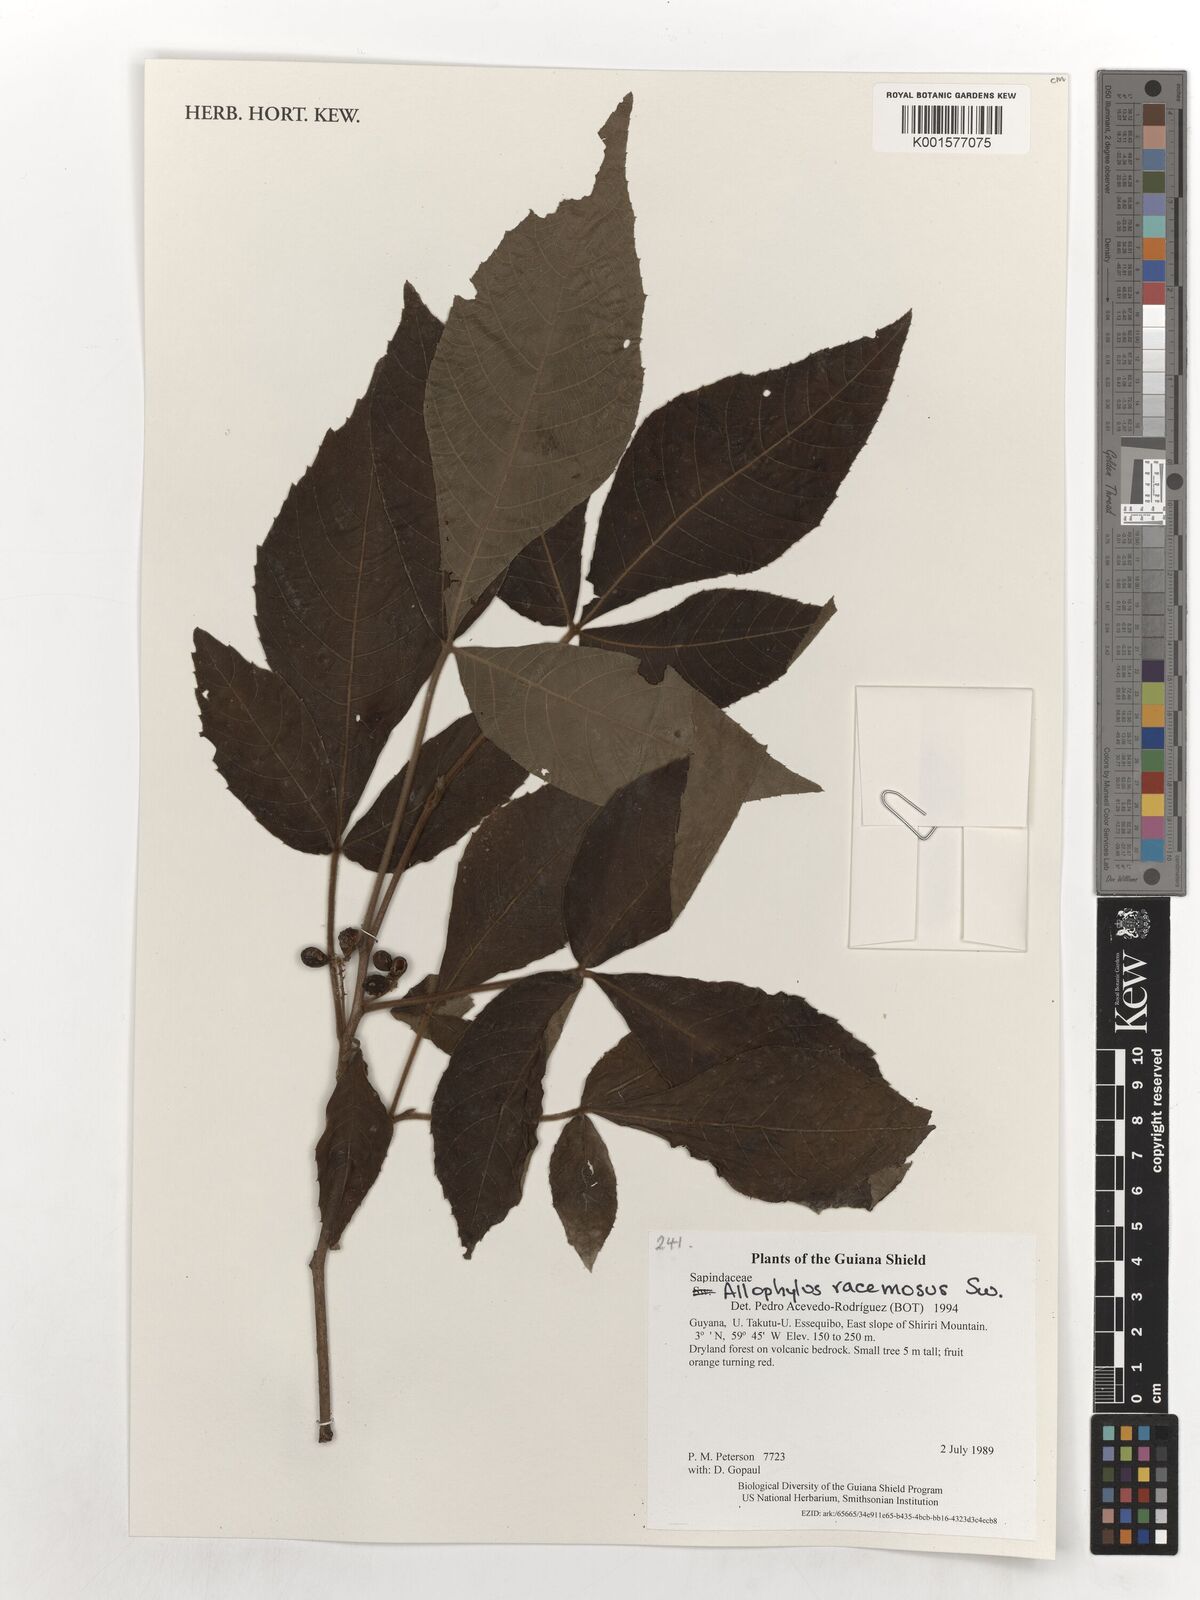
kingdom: Plantae
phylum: Tracheophyta
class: Magnoliopsida
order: Sapindales
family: Sapindaceae
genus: Allophylus
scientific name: Allophylus racemosus
